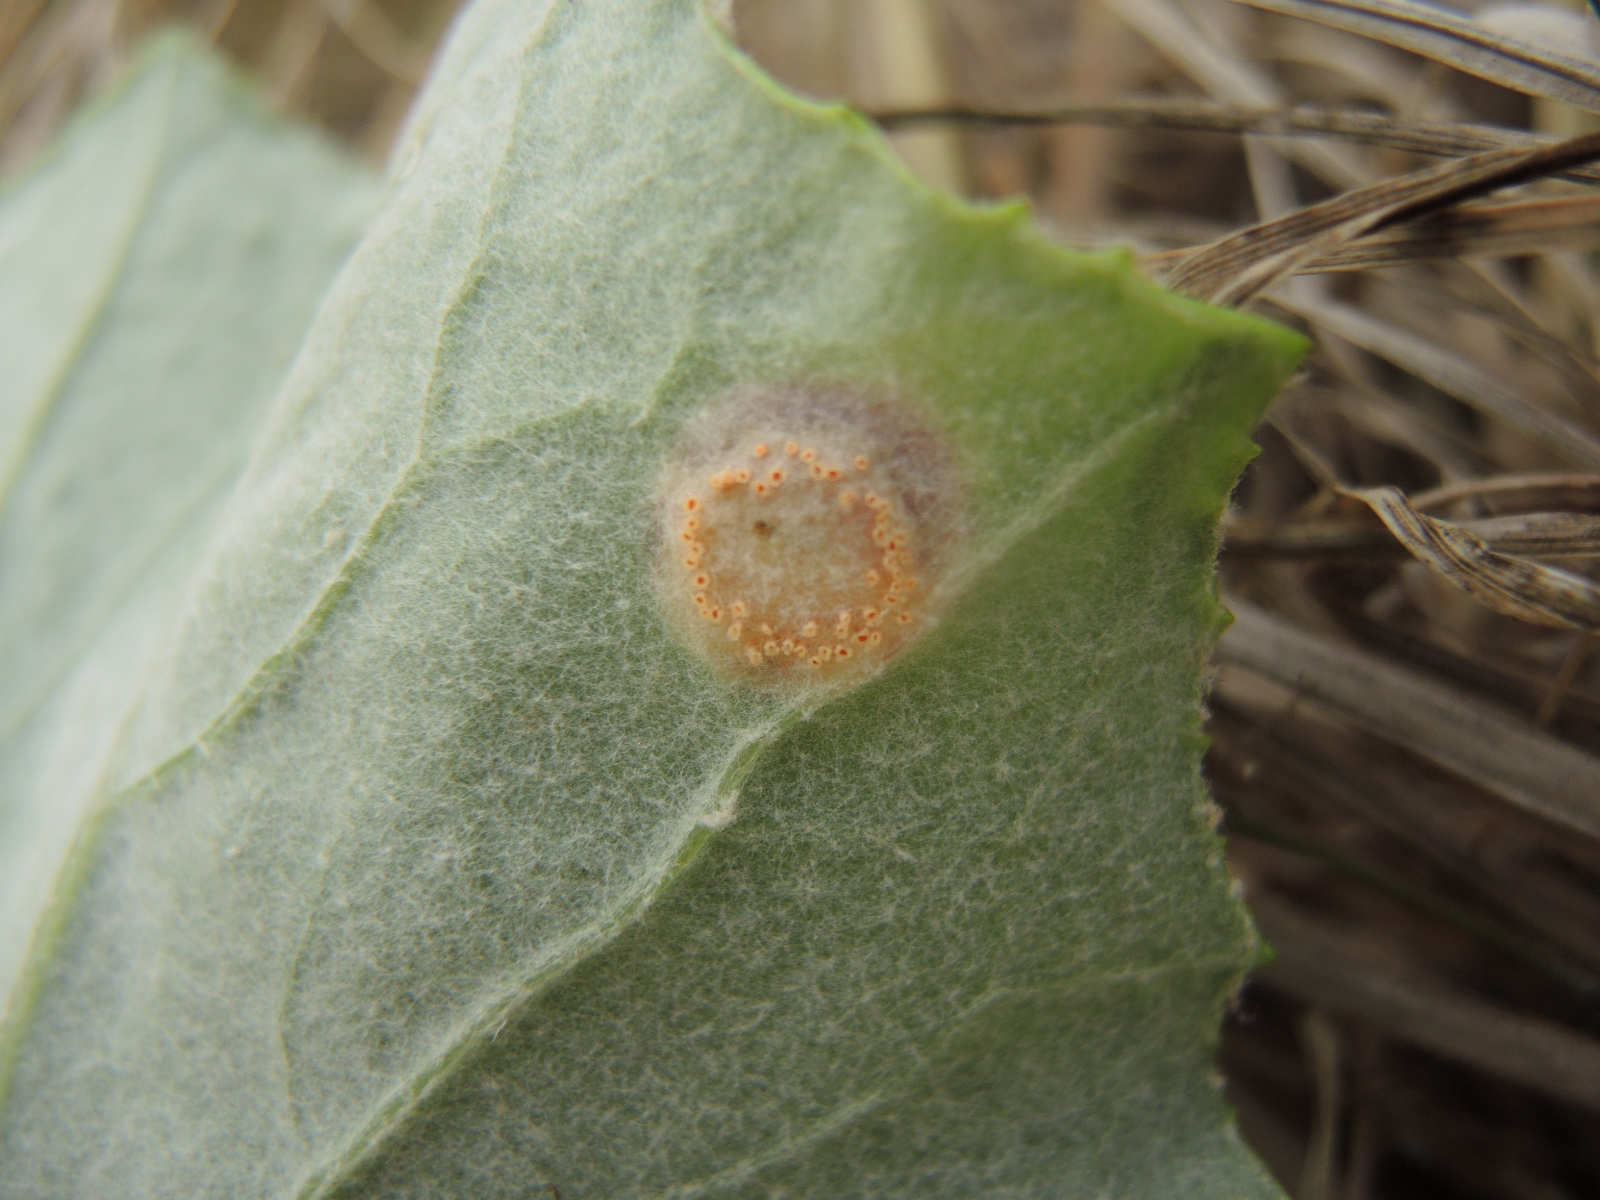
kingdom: Fungi
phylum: Basidiomycota
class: Pucciniomycetes
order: Pucciniales
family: Pucciniaceae
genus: Puccinia
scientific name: Puccinia poarum
